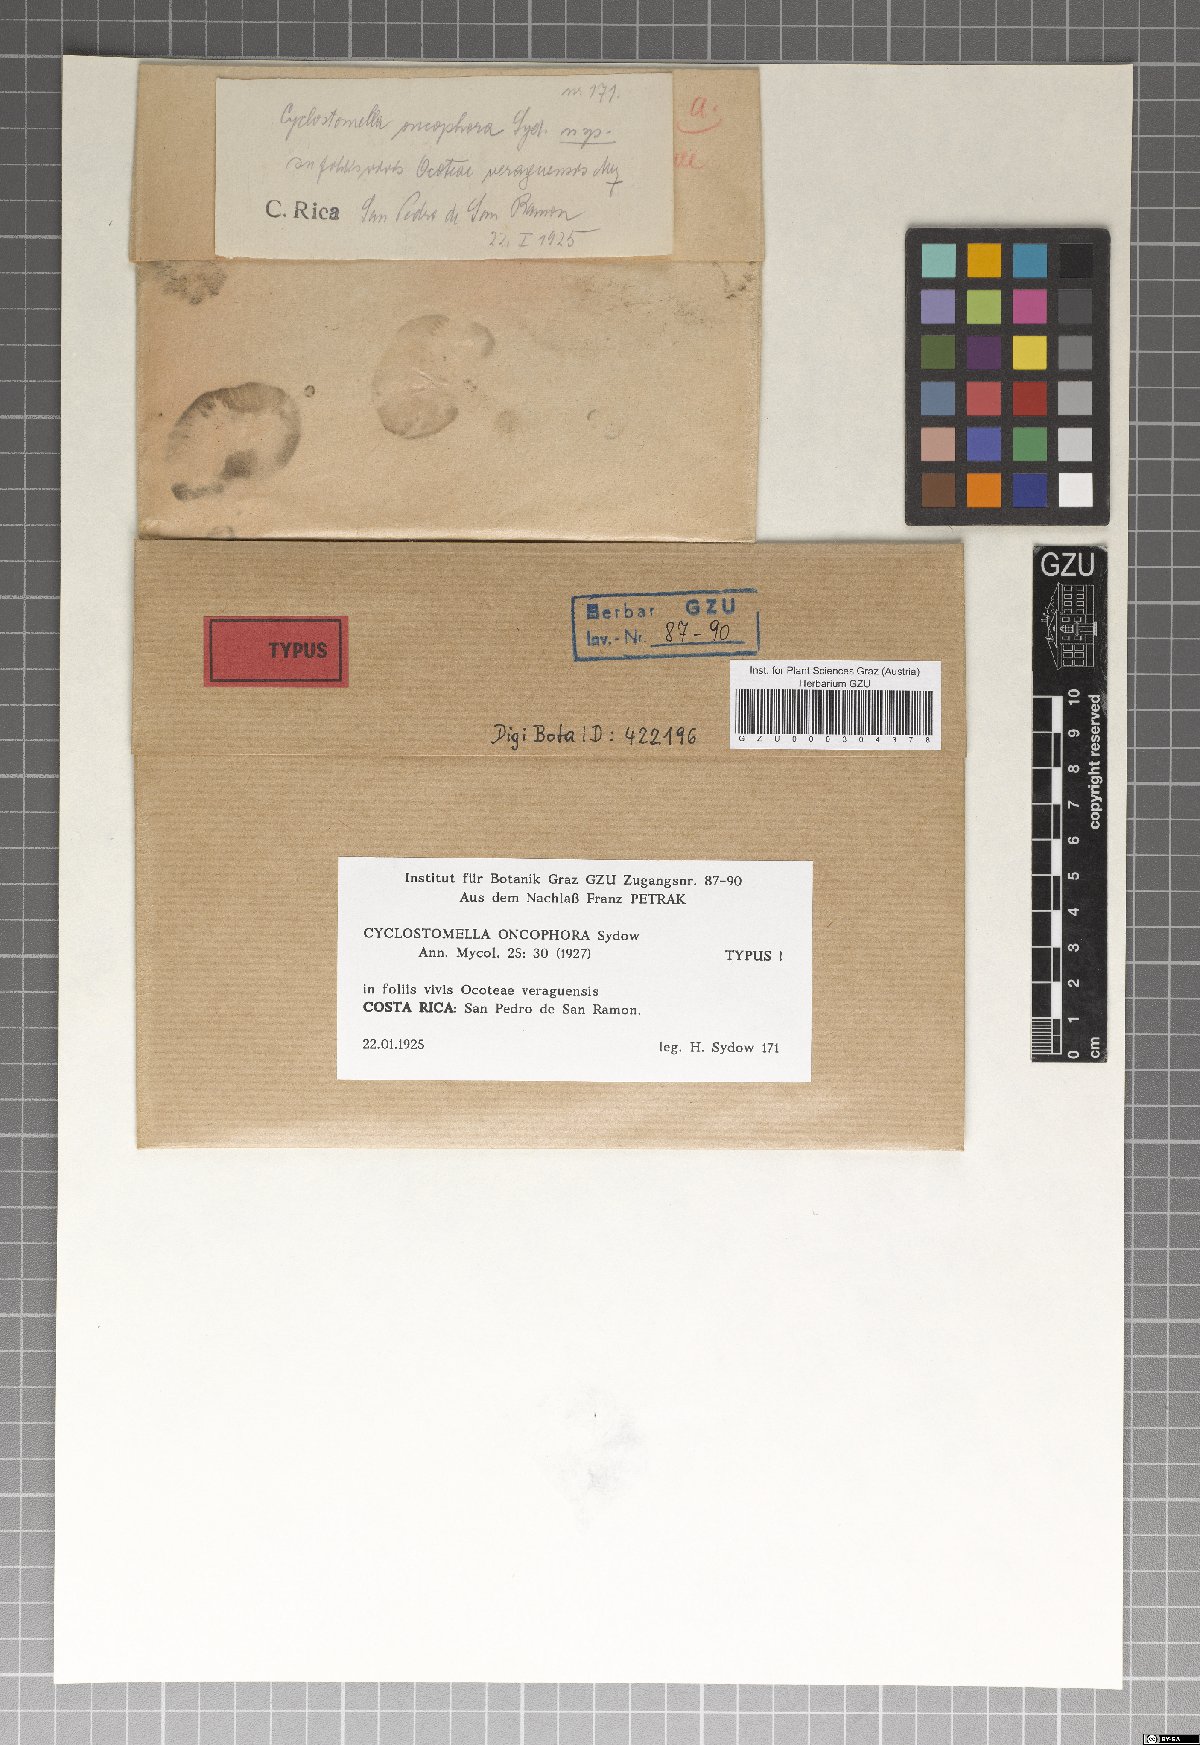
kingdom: Fungi
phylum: Ascomycota
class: Dothideomycetes
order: Asterinales
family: Parmulariaceae
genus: Cyclostomella
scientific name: Cyclostomella oncophora
